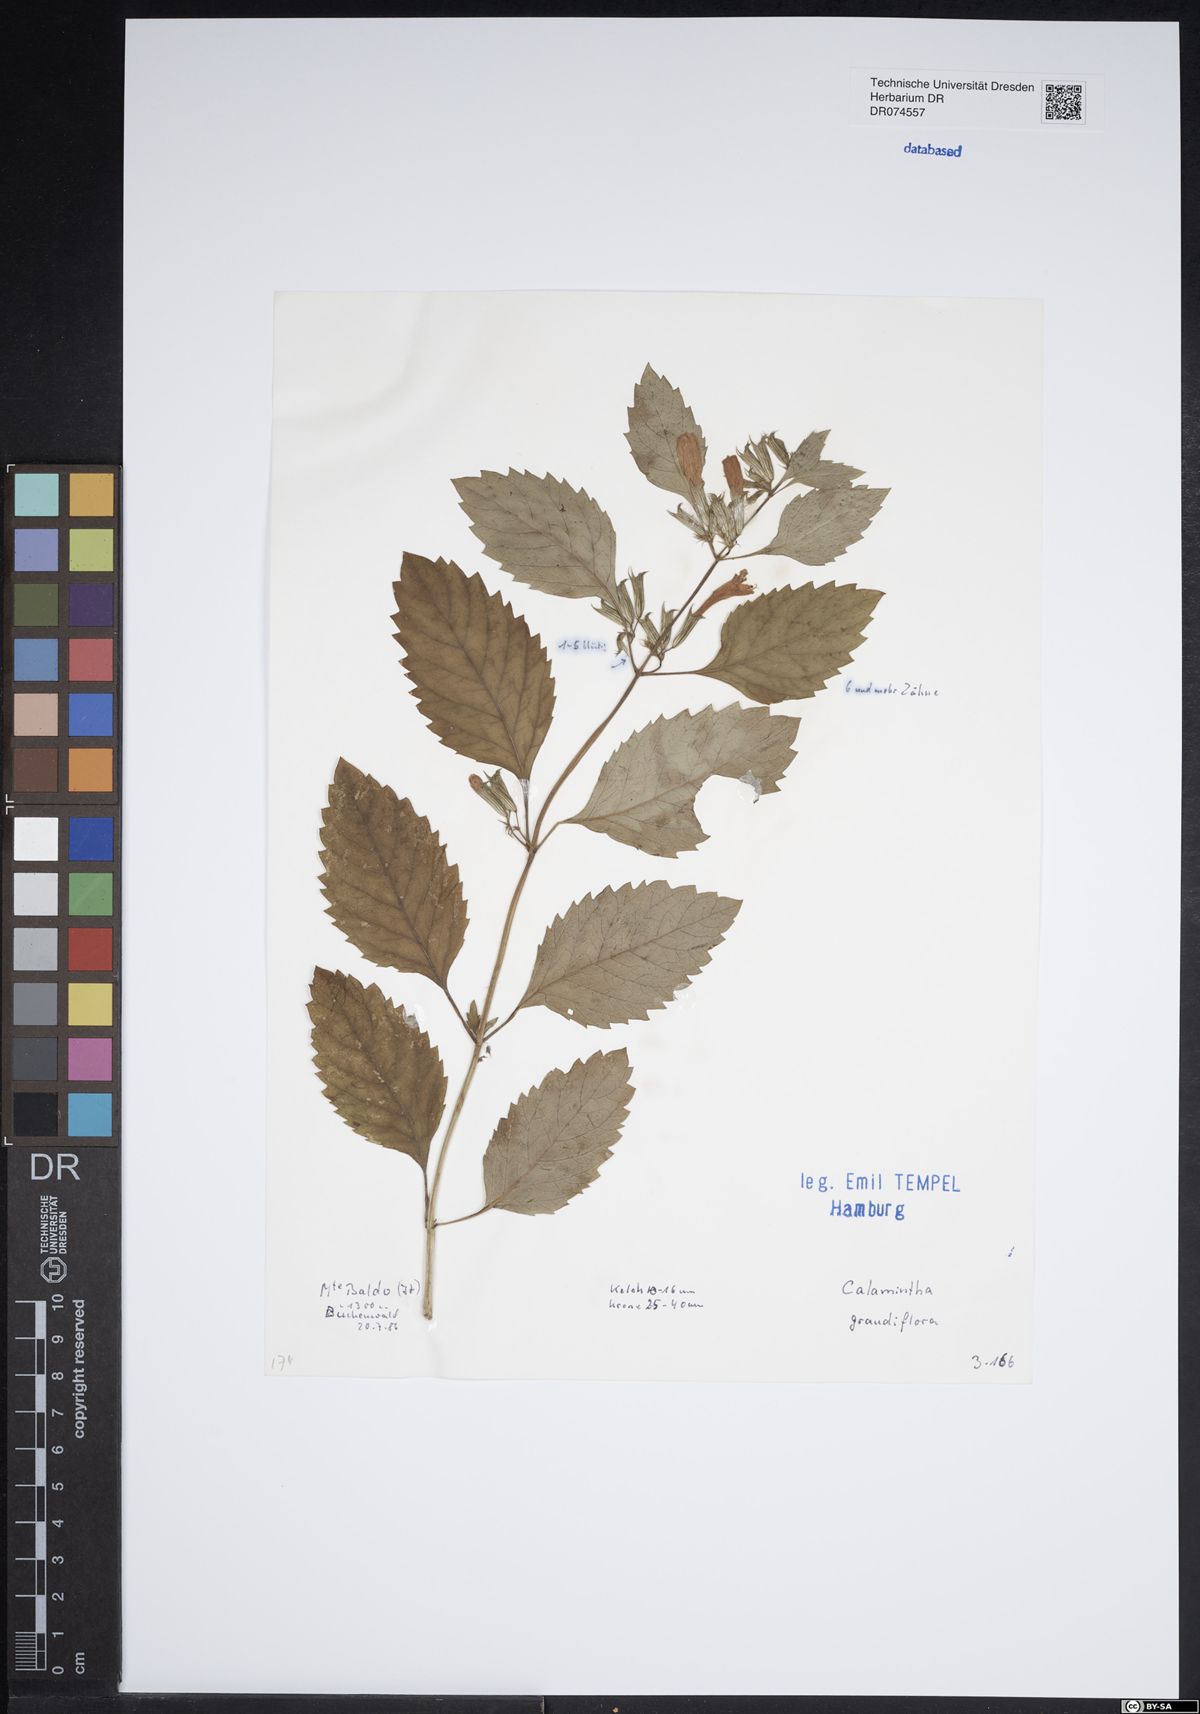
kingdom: Plantae
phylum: Tracheophyta
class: Magnoliopsida
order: Lamiales
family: Lamiaceae
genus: Clinopodium
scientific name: Clinopodium grandiflorum
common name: Greater calamint
